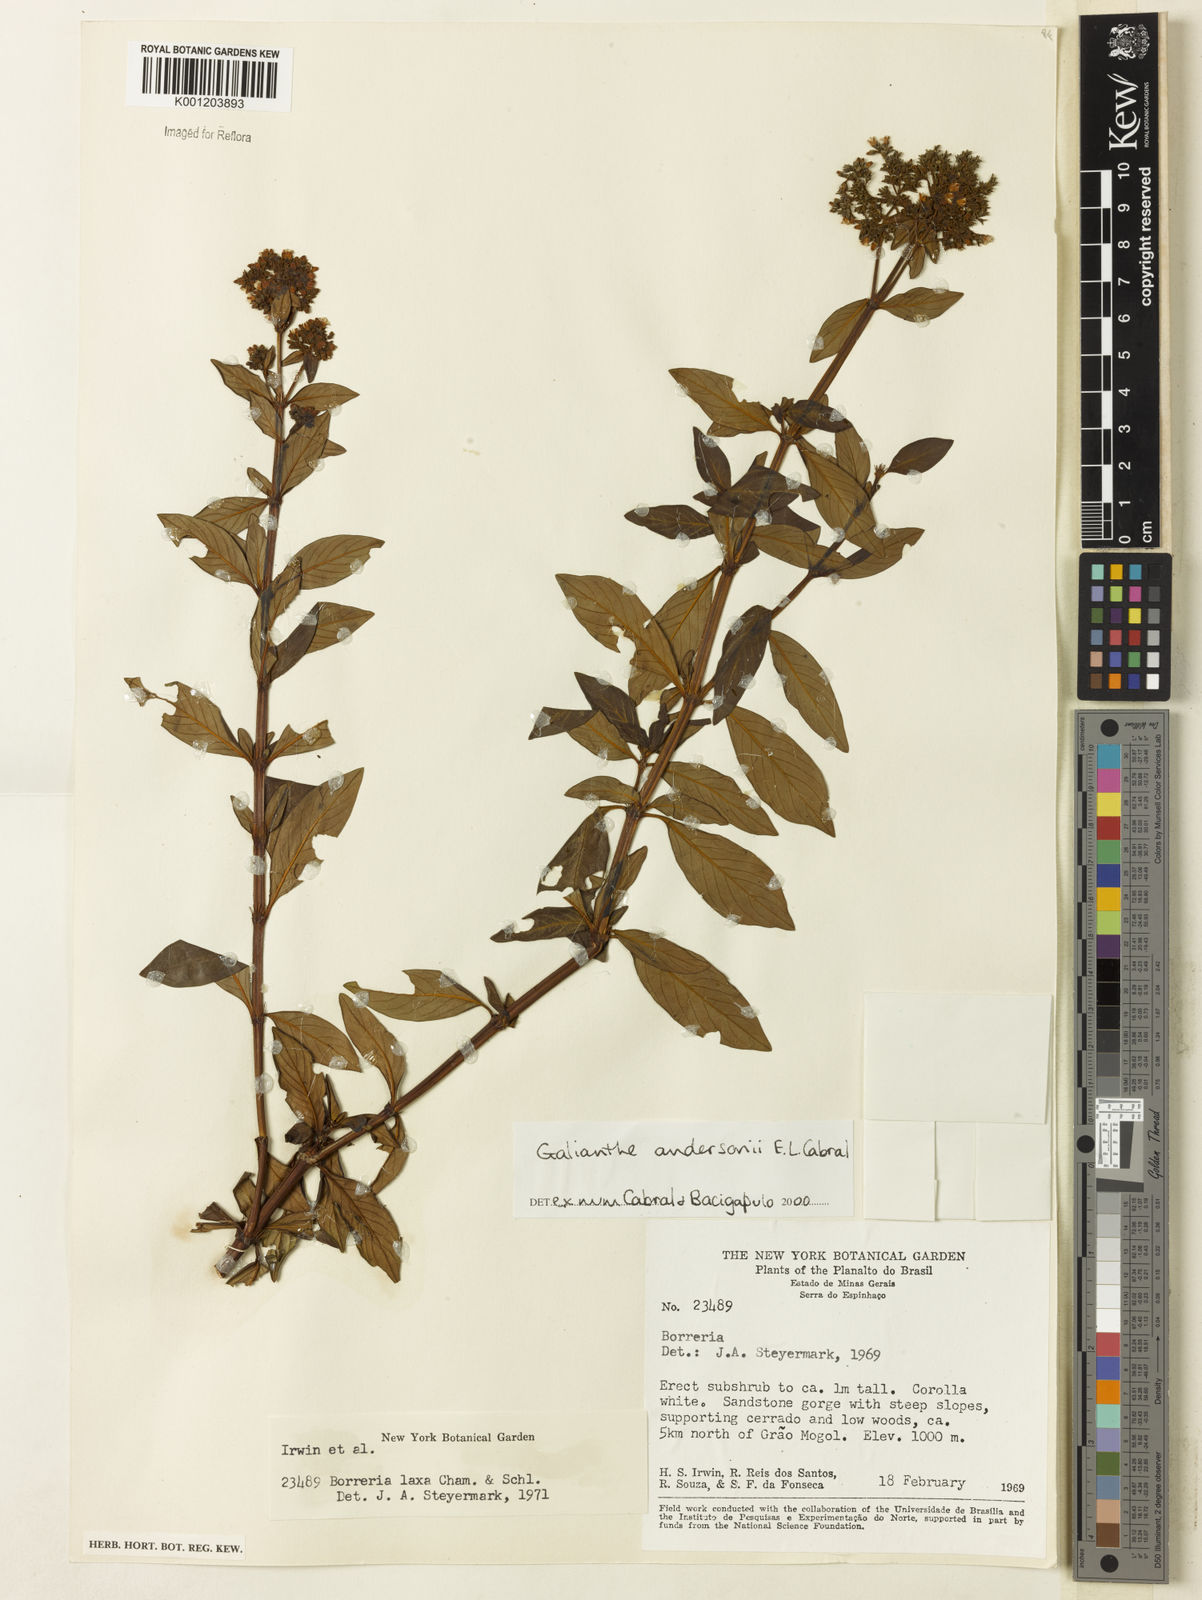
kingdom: Plantae
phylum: Tracheophyta
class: Magnoliopsida
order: Gentianales
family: Rubiaceae
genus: Galianthe
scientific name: Galianthe andersonii
